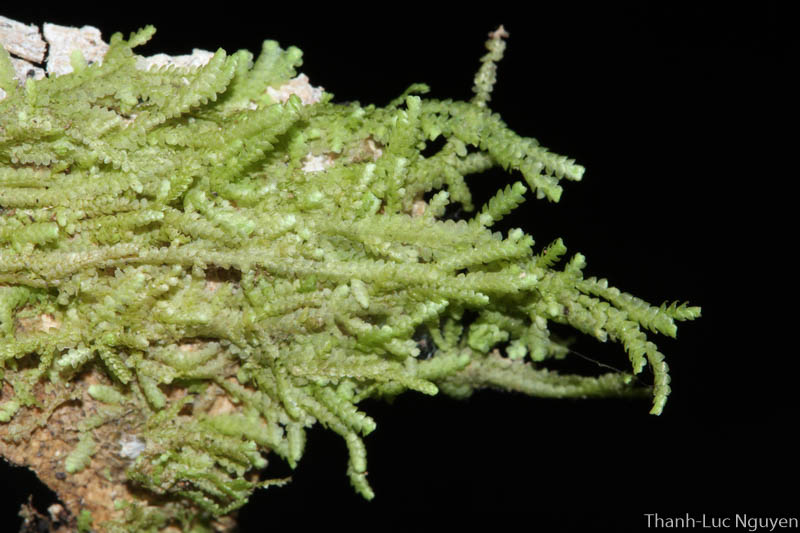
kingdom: Plantae
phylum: Marchantiophyta
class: Jungermanniopsida
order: Porellales
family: Lejeuneaceae
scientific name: Lejeuneaceae
